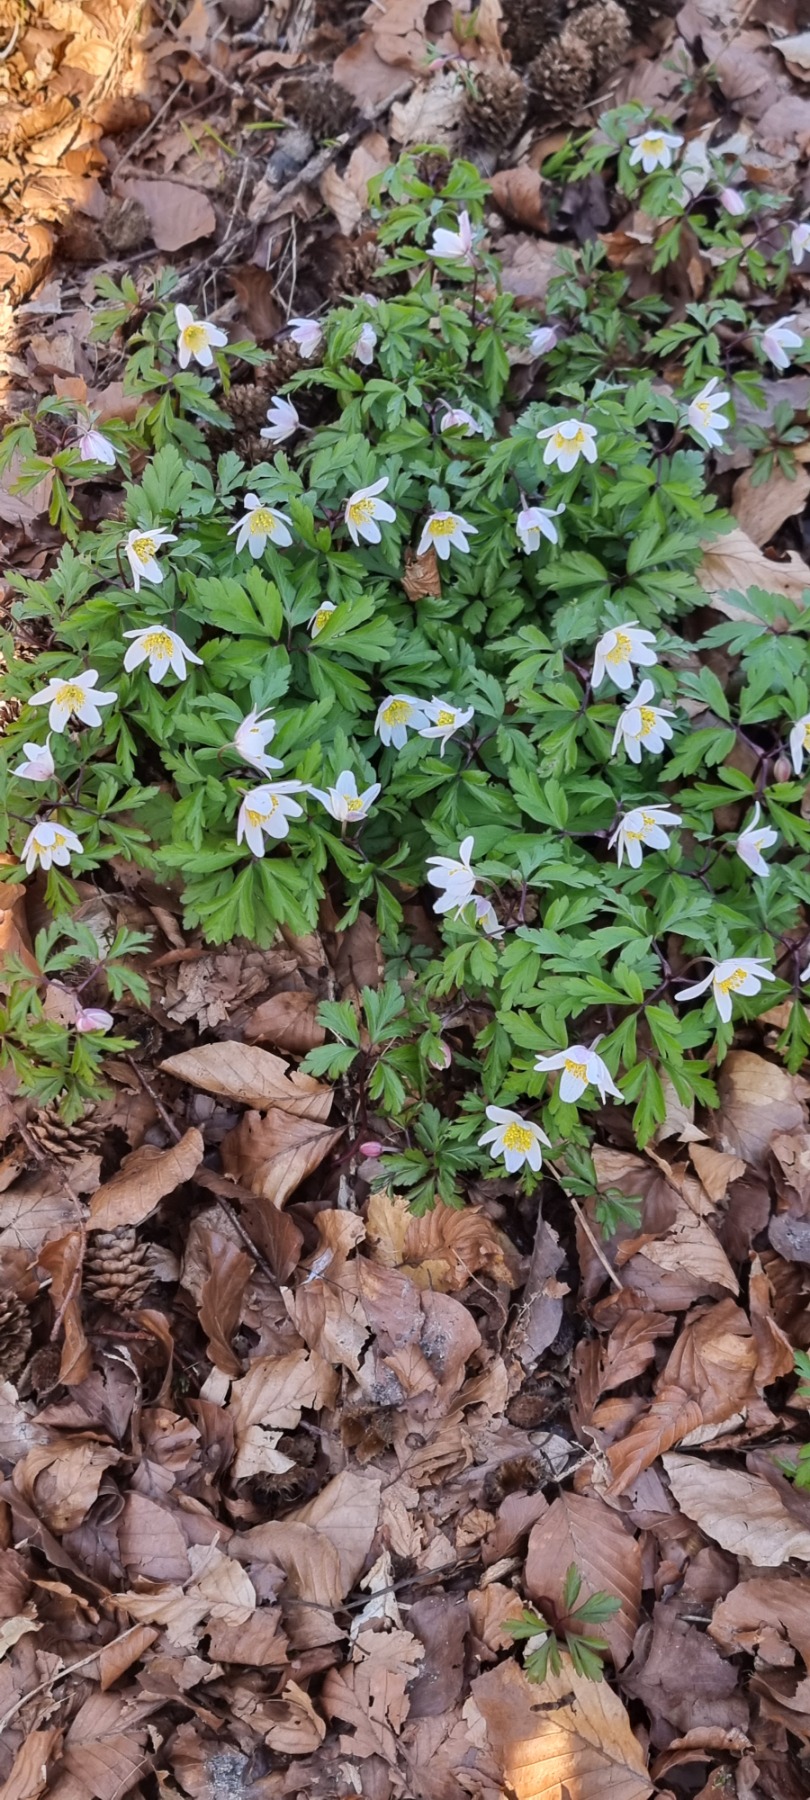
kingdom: Plantae
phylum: Tracheophyta
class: Magnoliopsida
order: Ranunculales
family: Ranunculaceae
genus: Anemone
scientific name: Anemone nemorosa
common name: Hvid anemone
